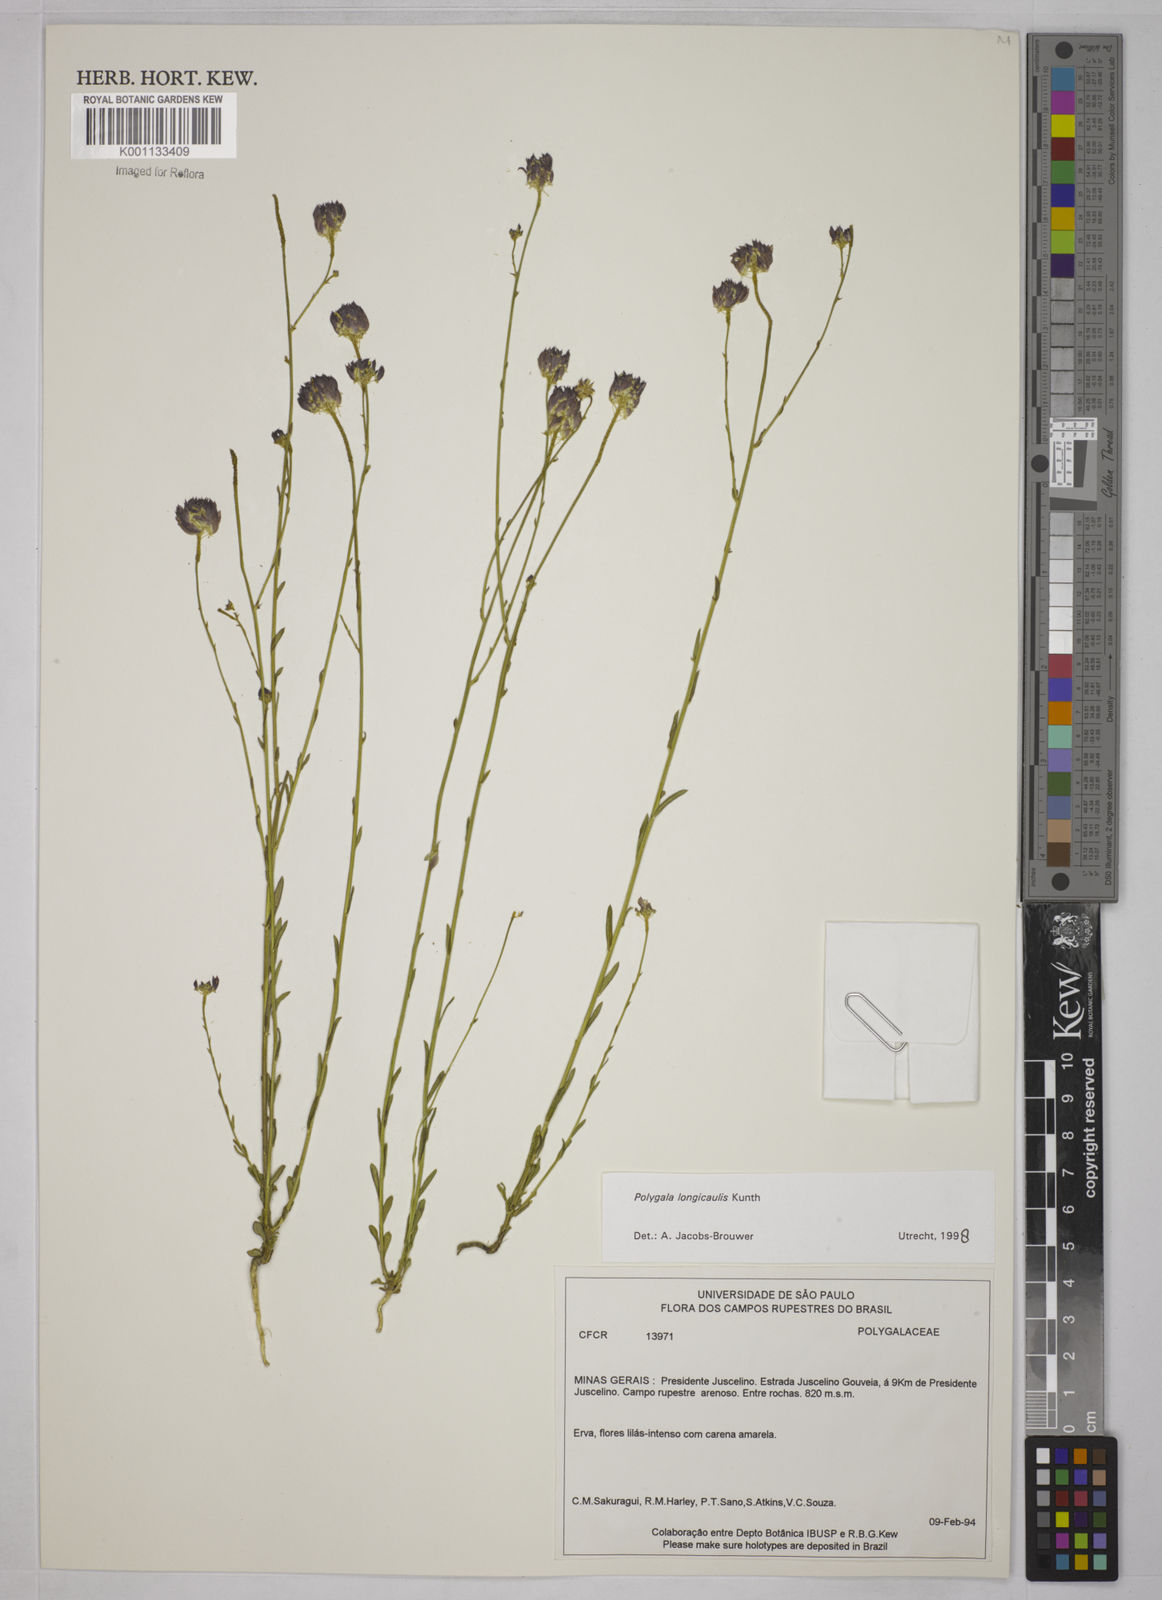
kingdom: Plantae
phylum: Tracheophyta
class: Magnoliopsida
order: Fabales
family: Polygalaceae
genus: Polygala
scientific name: Polygala longicaulis
